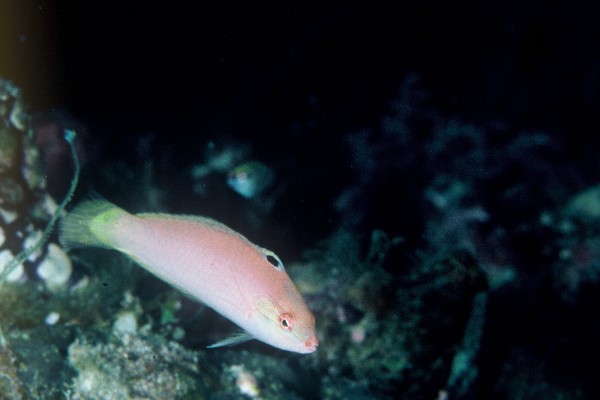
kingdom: Animalia
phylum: Chordata
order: Perciformes
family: Labridae
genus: Halichoeres
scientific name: Halichoeres pallidus
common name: Pale wrasse
